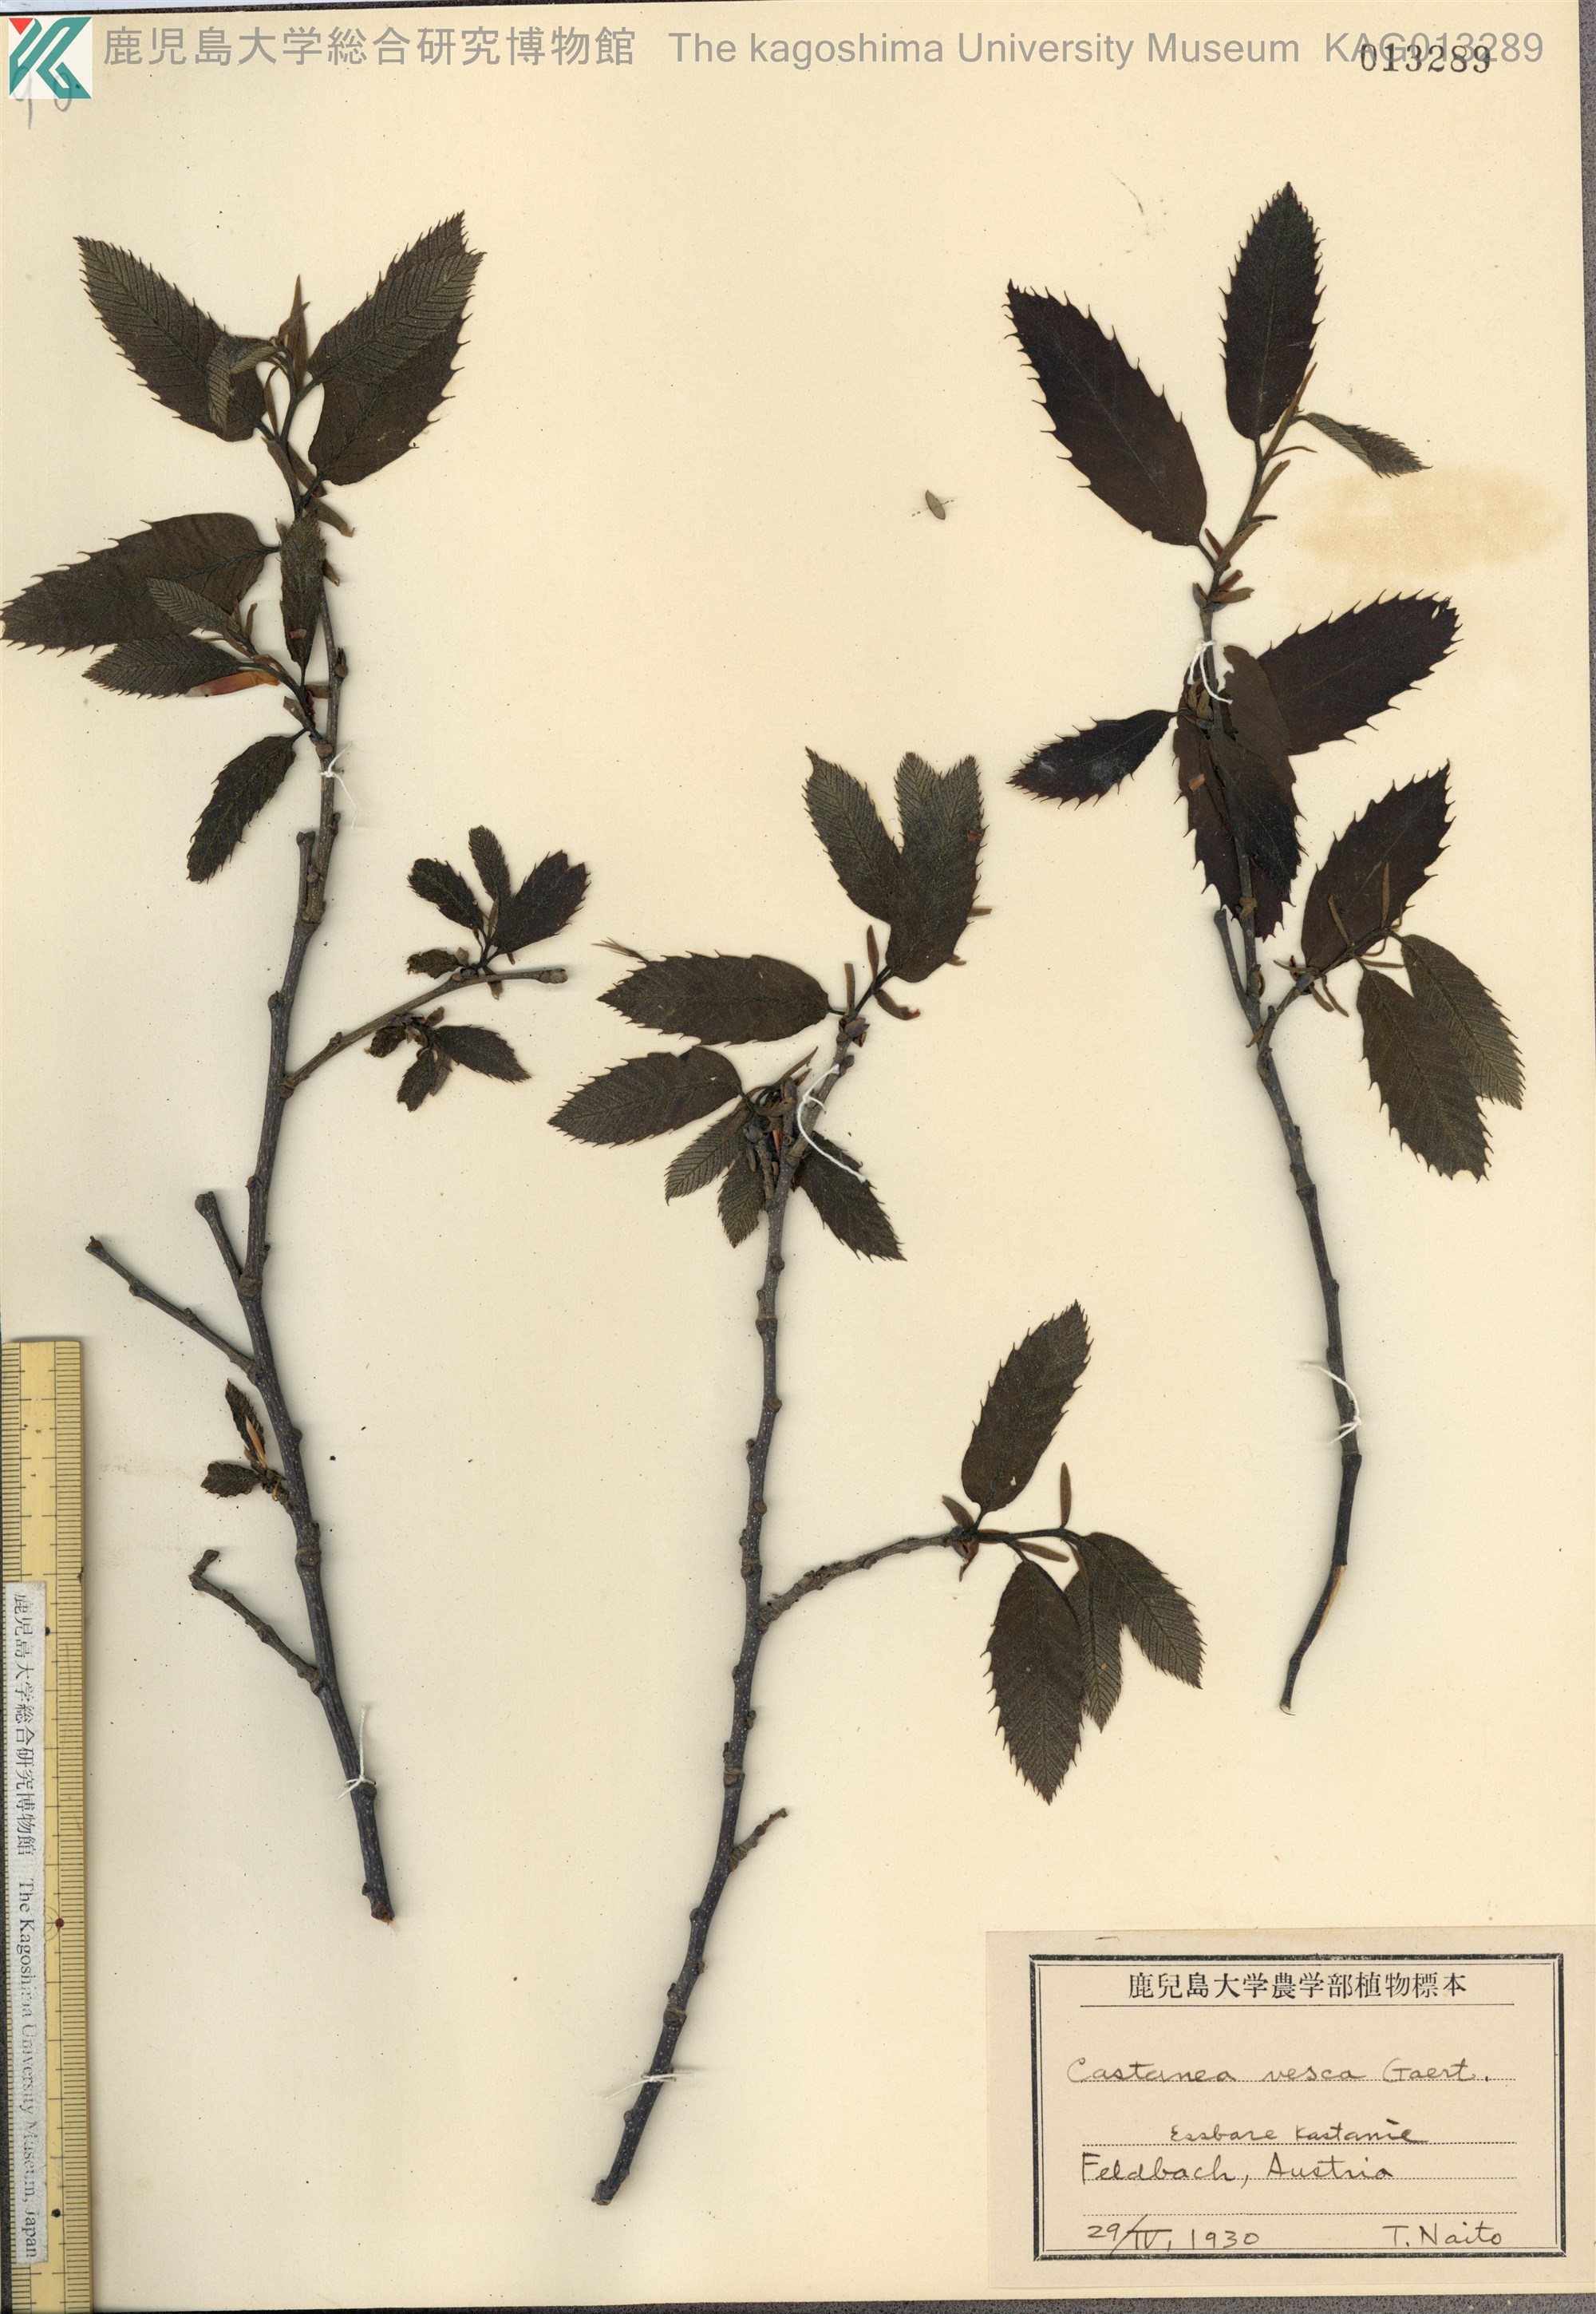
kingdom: Plantae
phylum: Tracheophyta
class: Magnoliopsida
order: Fagales
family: Fagaceae
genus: Castanea
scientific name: Castanea sativa
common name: Sweet chestnut
